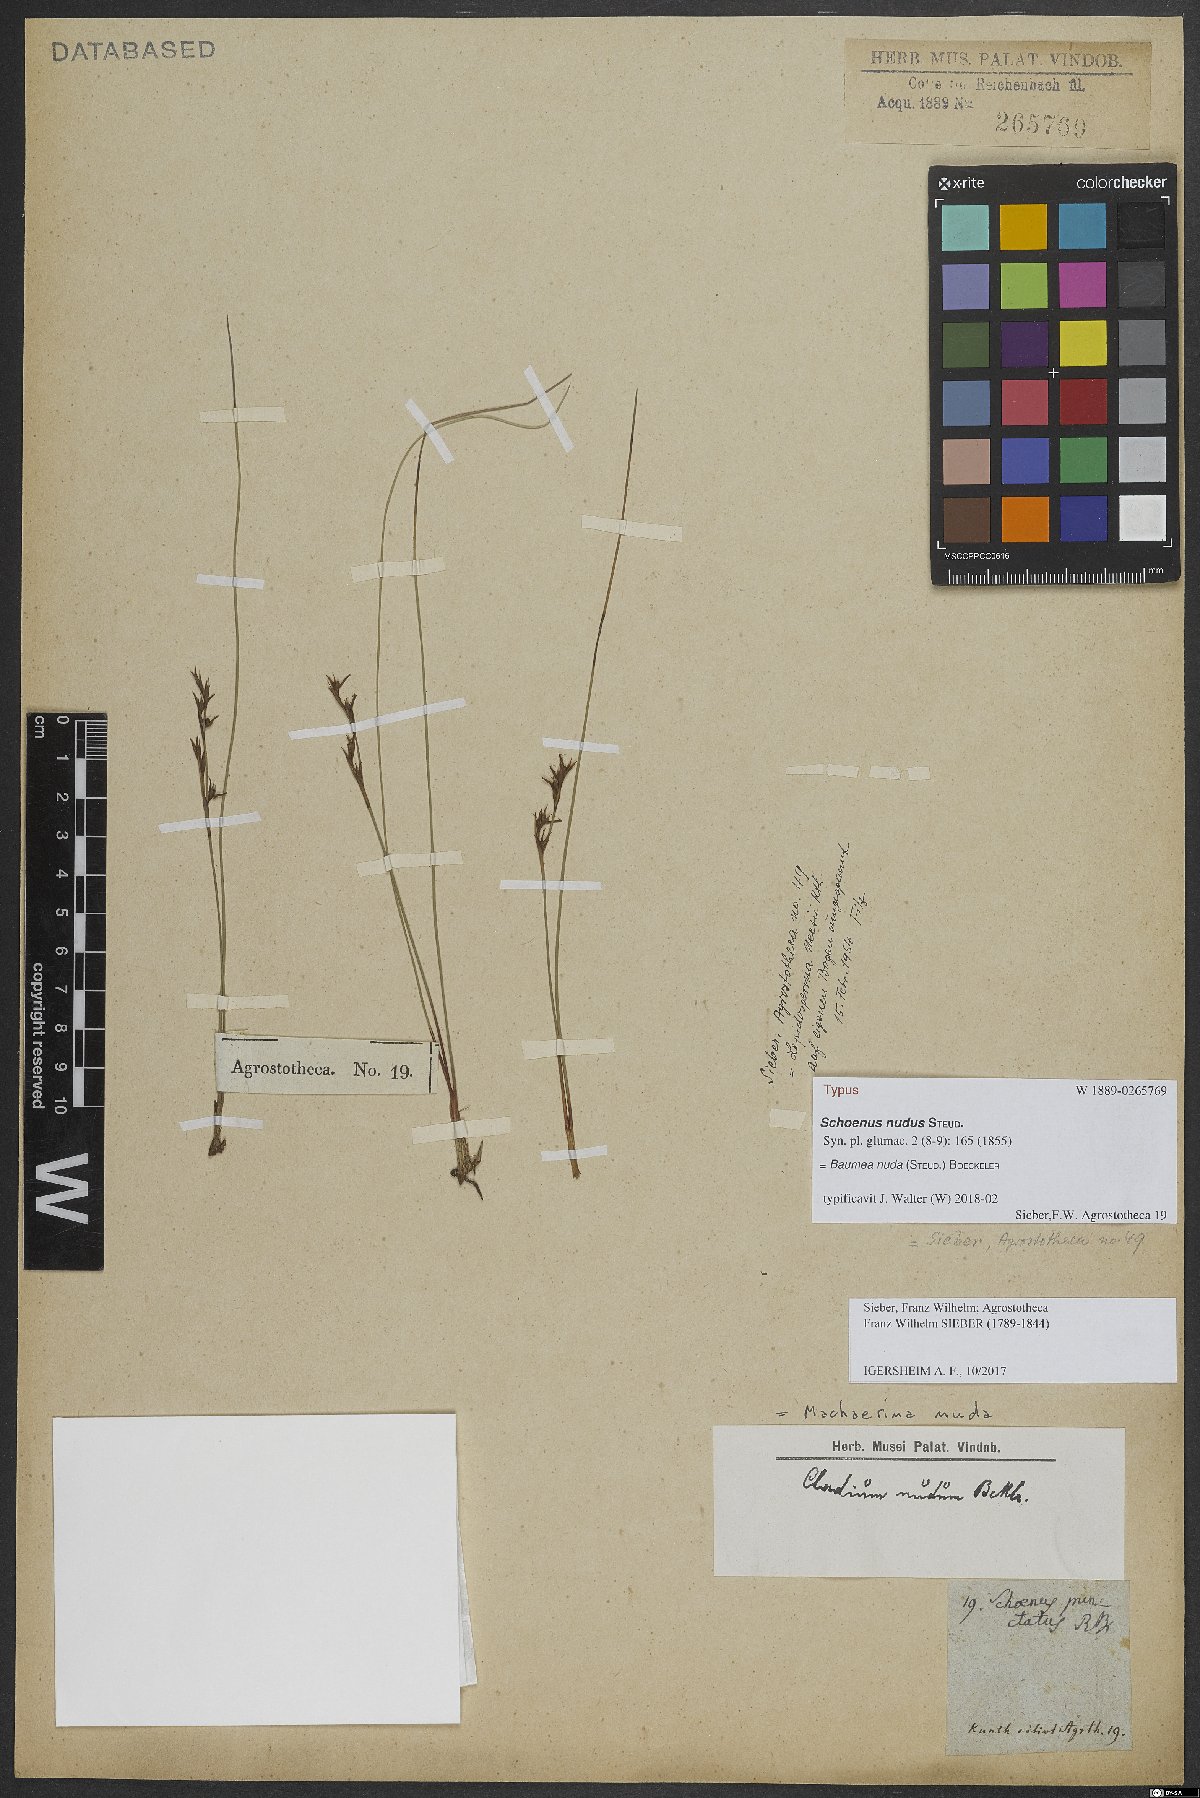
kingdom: Plantae
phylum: Tracheophyta
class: Liliopsida
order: Poales
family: Cyperaceae
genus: Machaerina
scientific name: Machaerina nuda
